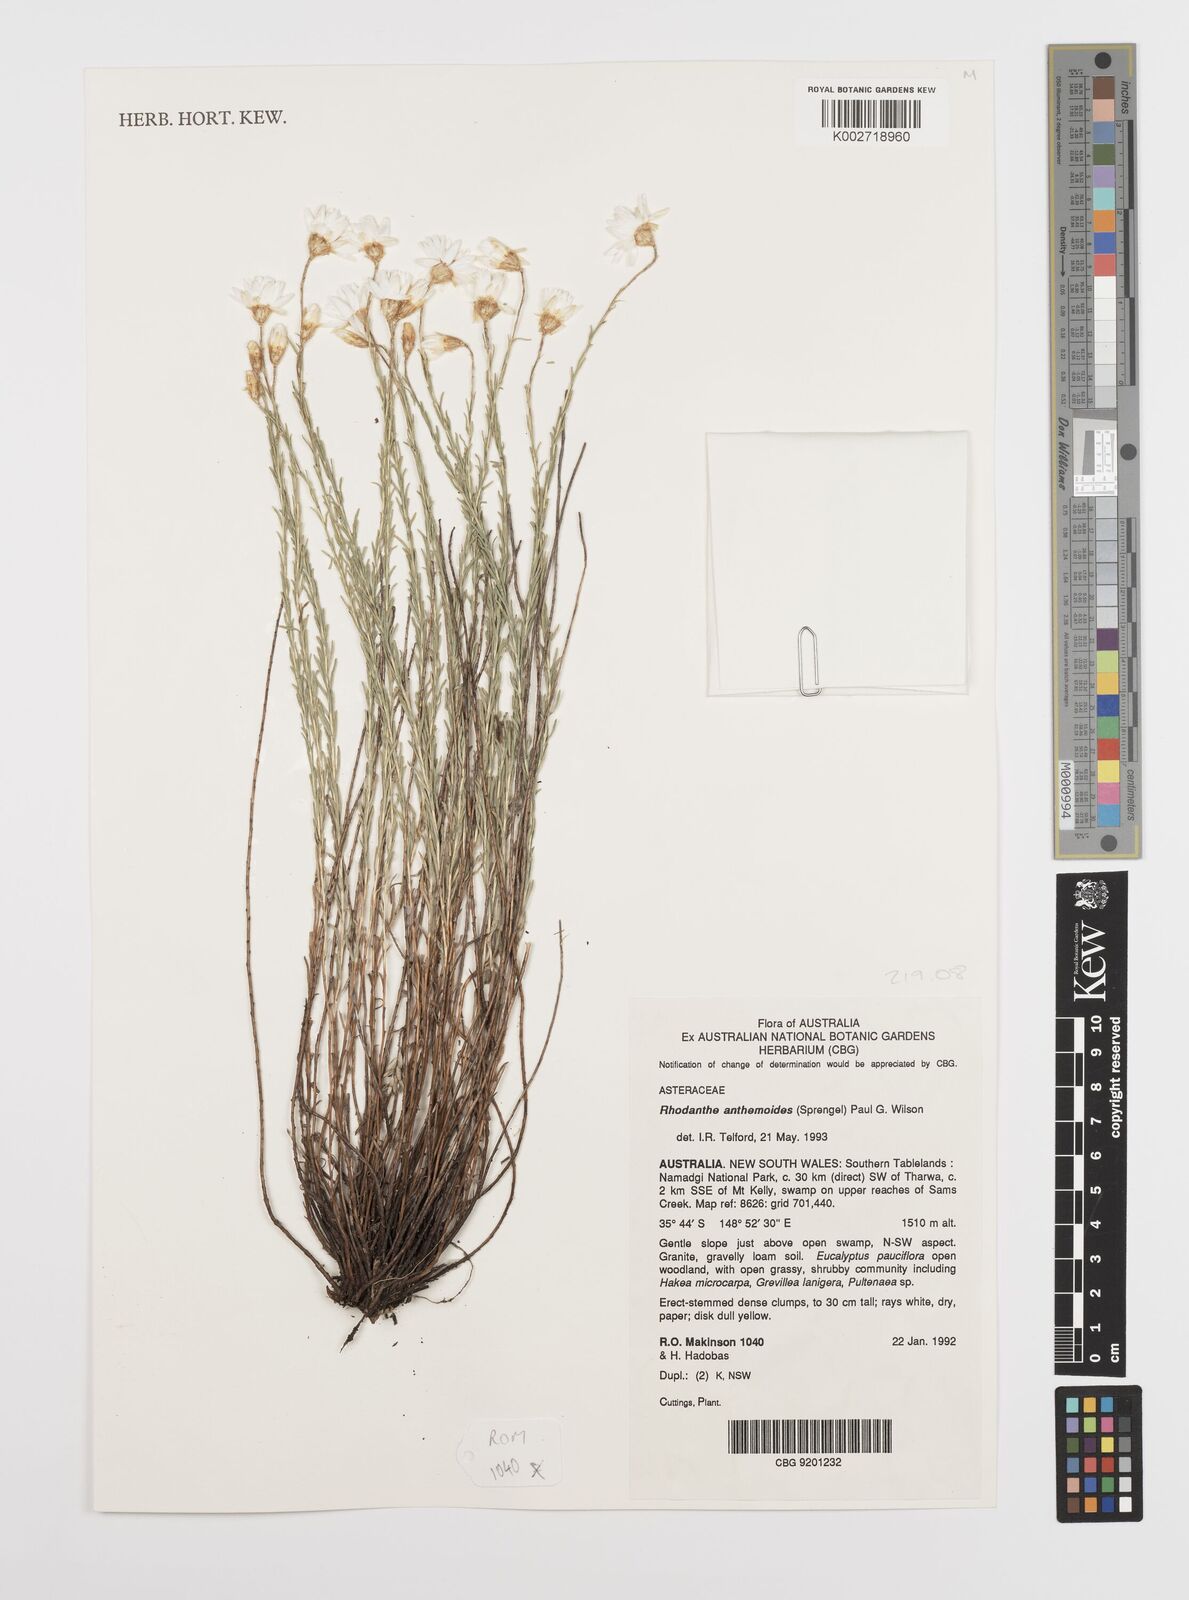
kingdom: Plantae
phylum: Tracheophyta
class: Magnoliopsida
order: Asterales
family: Asteraceae
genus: Rhodanthe
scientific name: Rhodanthe anthemoides
